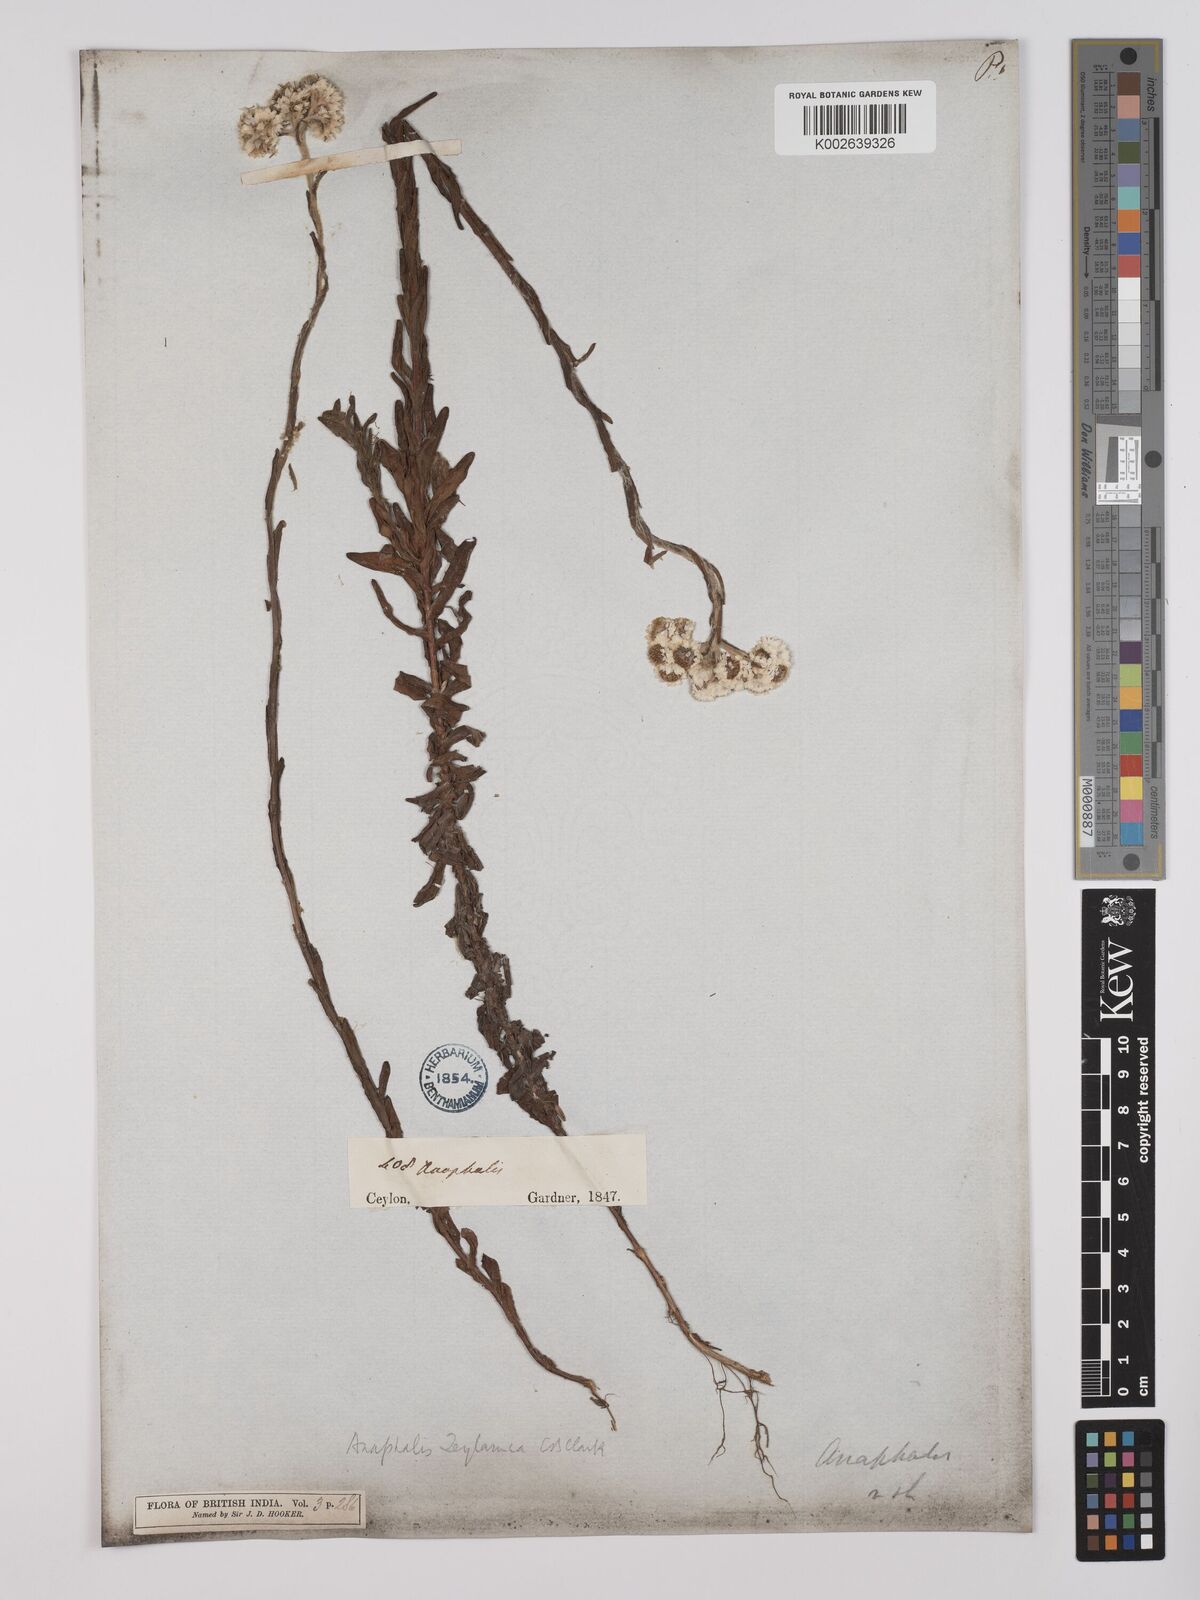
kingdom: Plantae
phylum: Tracheophyta
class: Magnoliopsida
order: Asterales
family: Asteraceae
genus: Anaphalis
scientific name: Anaphalis zeylanica
